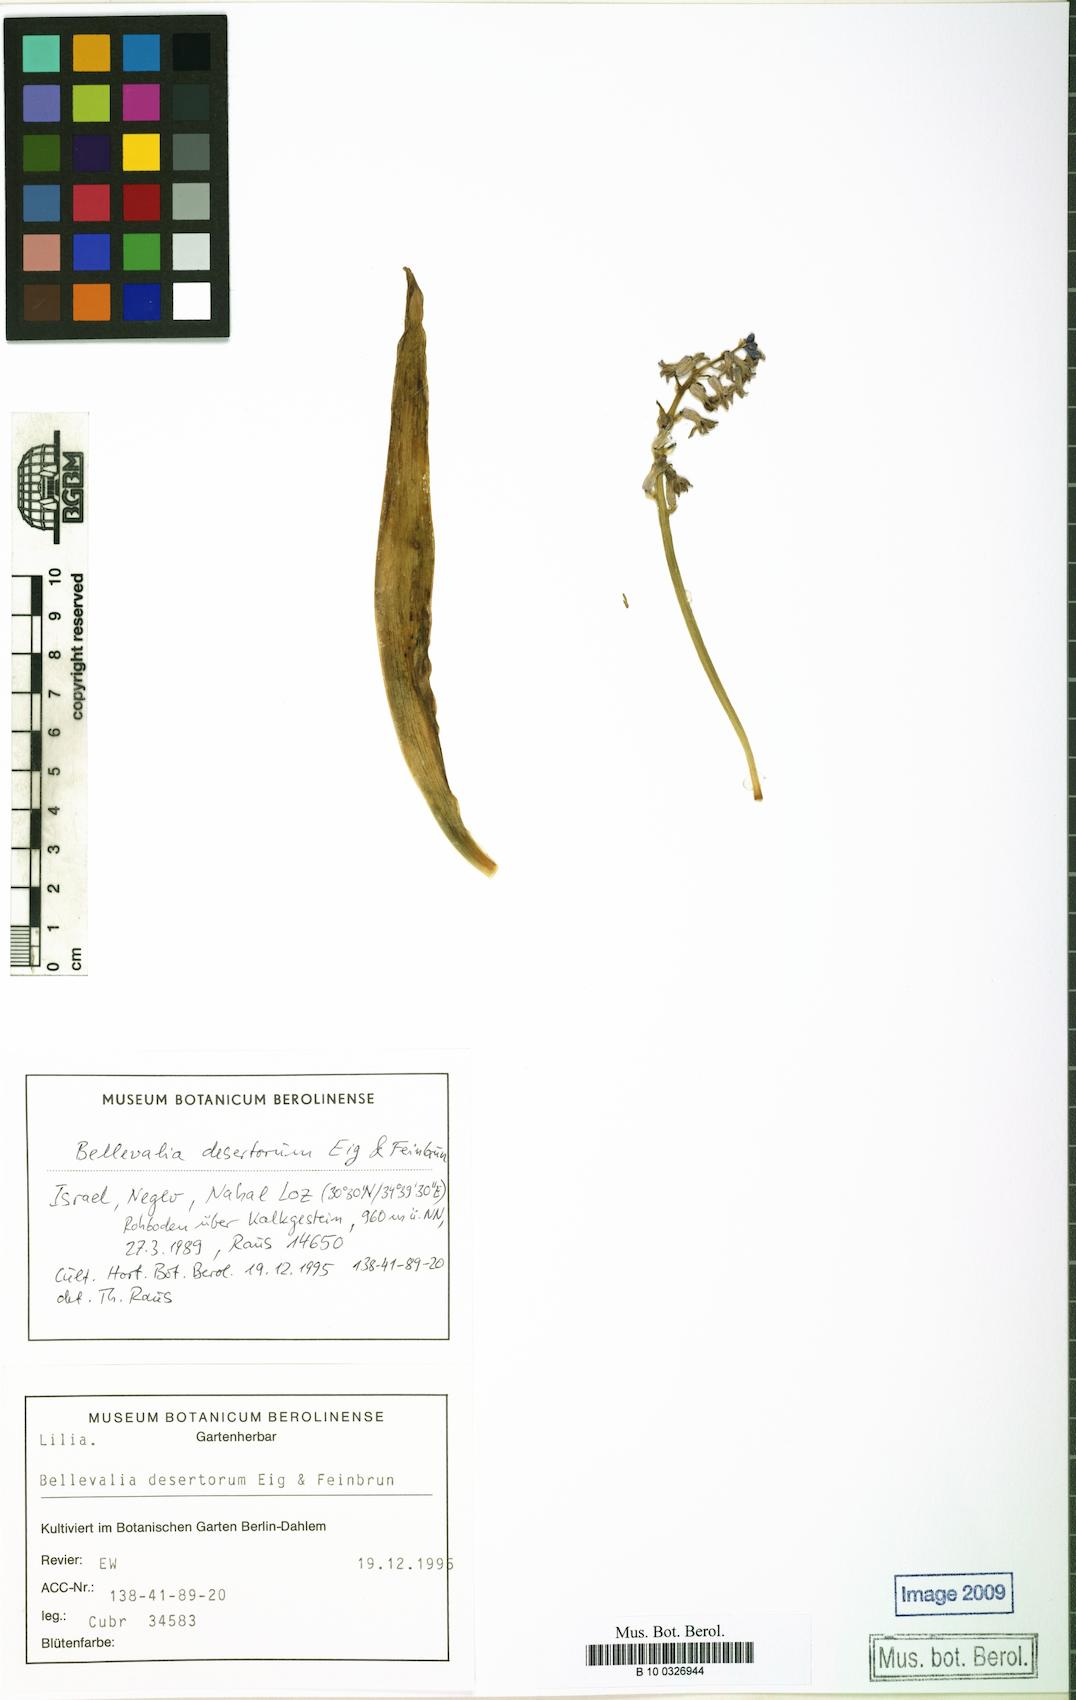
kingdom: Plantae
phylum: Tracheophyta
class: Liliopsida
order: Asparagales
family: Asparagaceae
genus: Bellevalia
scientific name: Bellevalia desertorum
